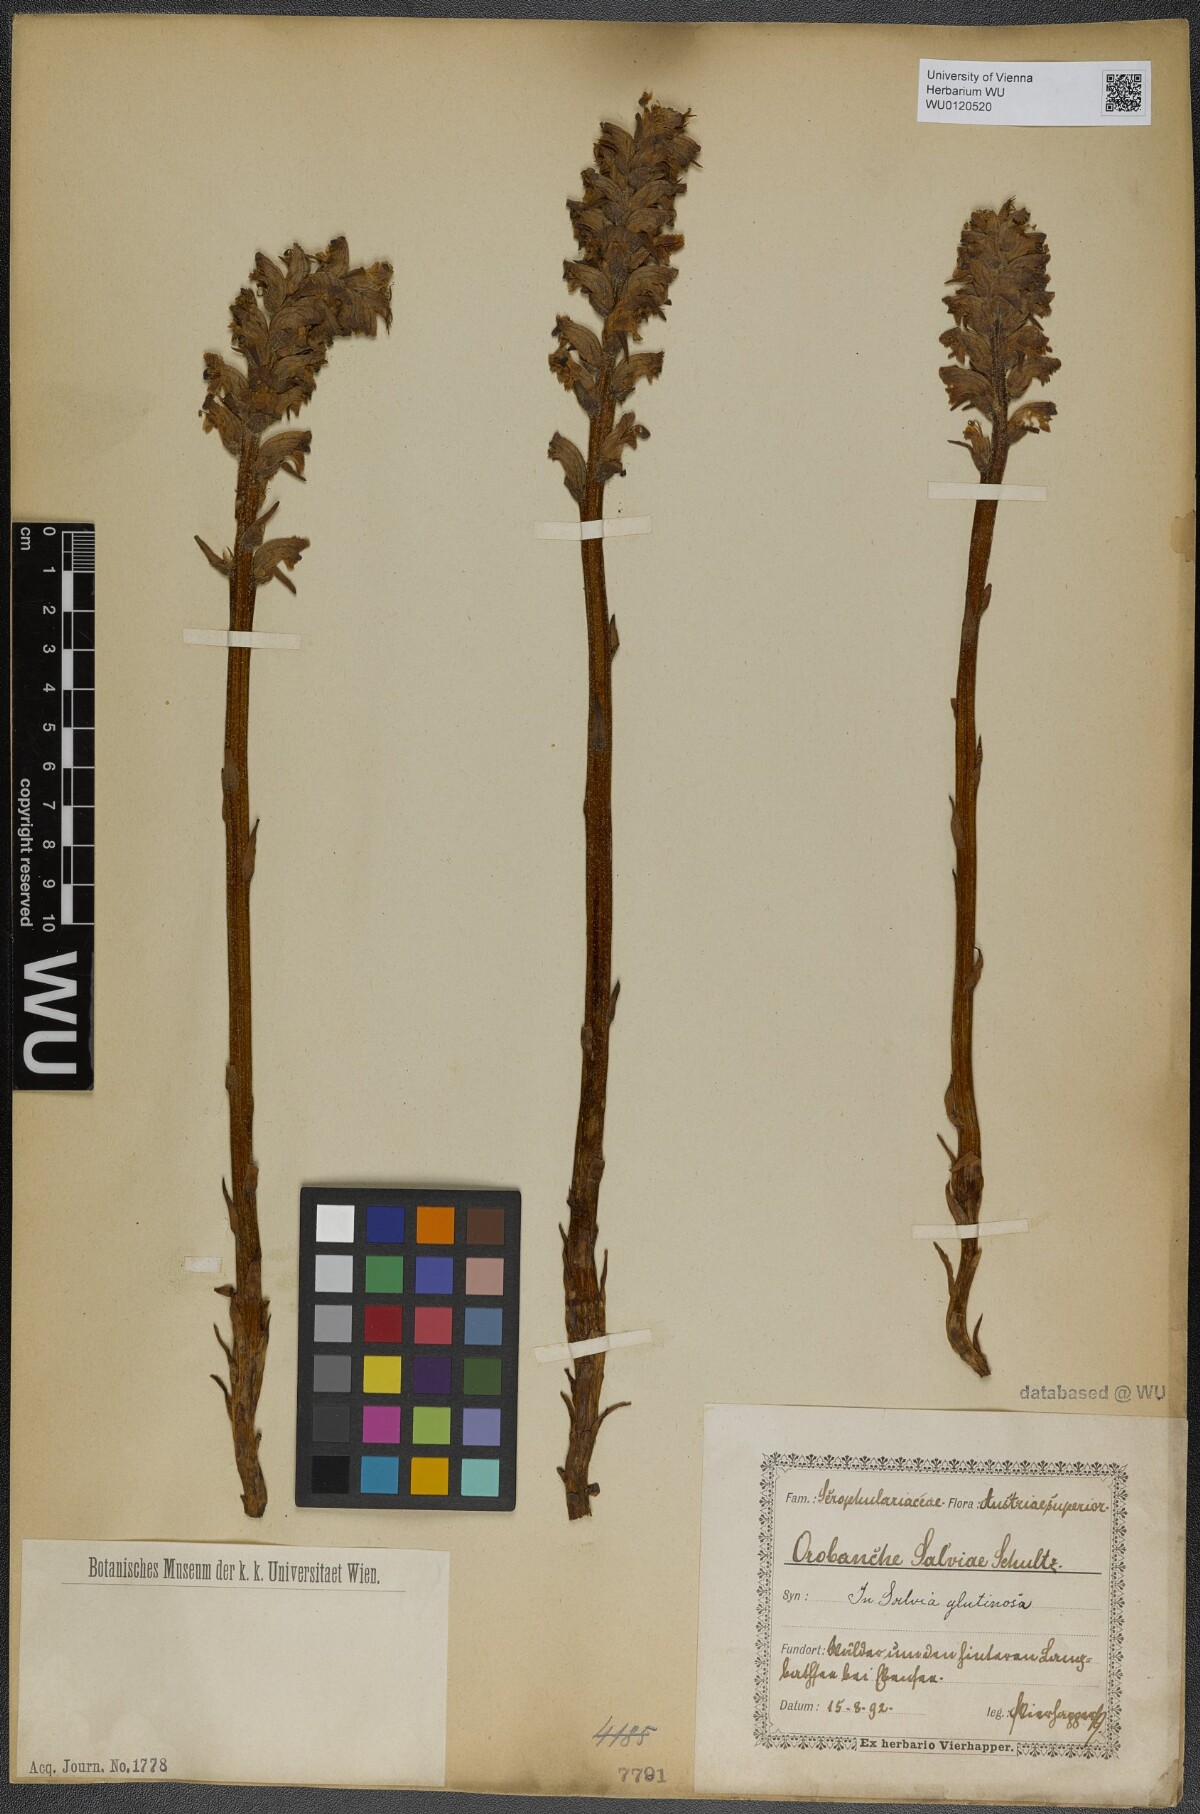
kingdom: Plantae
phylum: Tracheophyta
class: Magnoliopsida
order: Lamiales
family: Orobanchaceae
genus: Orobanche
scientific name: Orobanche salviae
